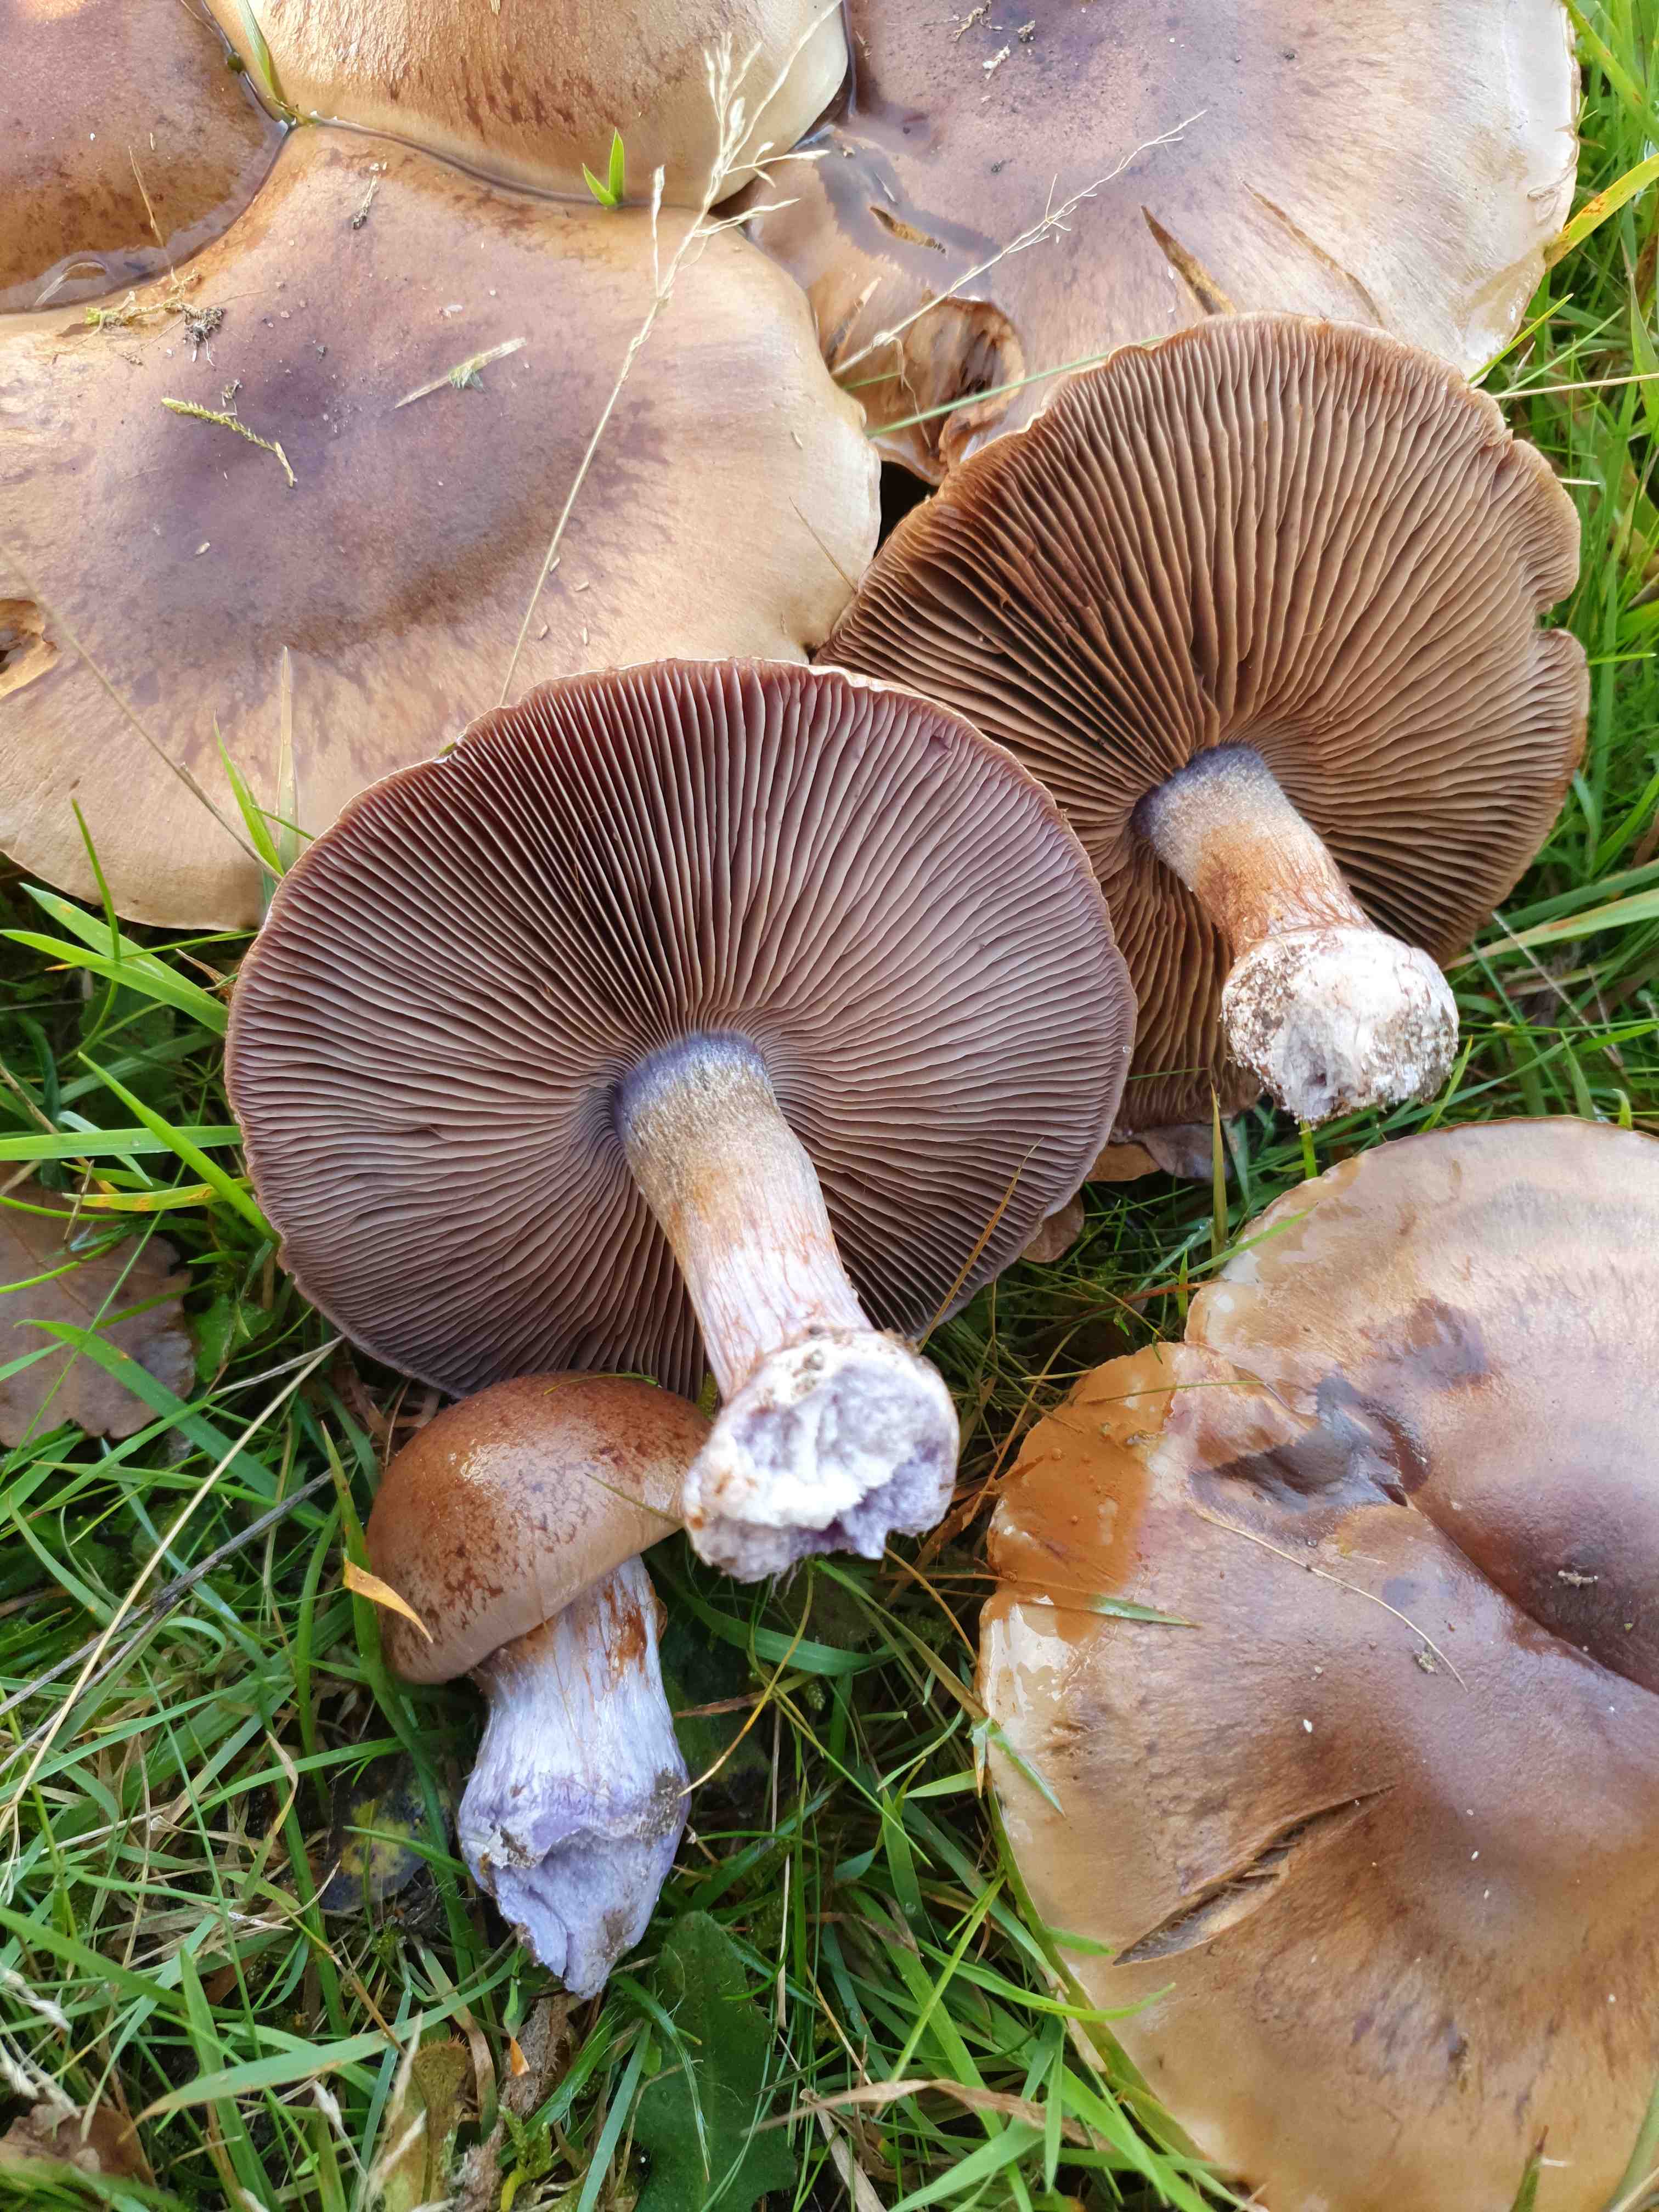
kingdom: Fungi
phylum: Basidiomycota
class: Agaricomycetes
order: Agaricales
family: Cortinariaceae
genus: Thaxterogaster
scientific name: Thaxterogaster subpurpurascens
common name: mørkblånende slørhat
